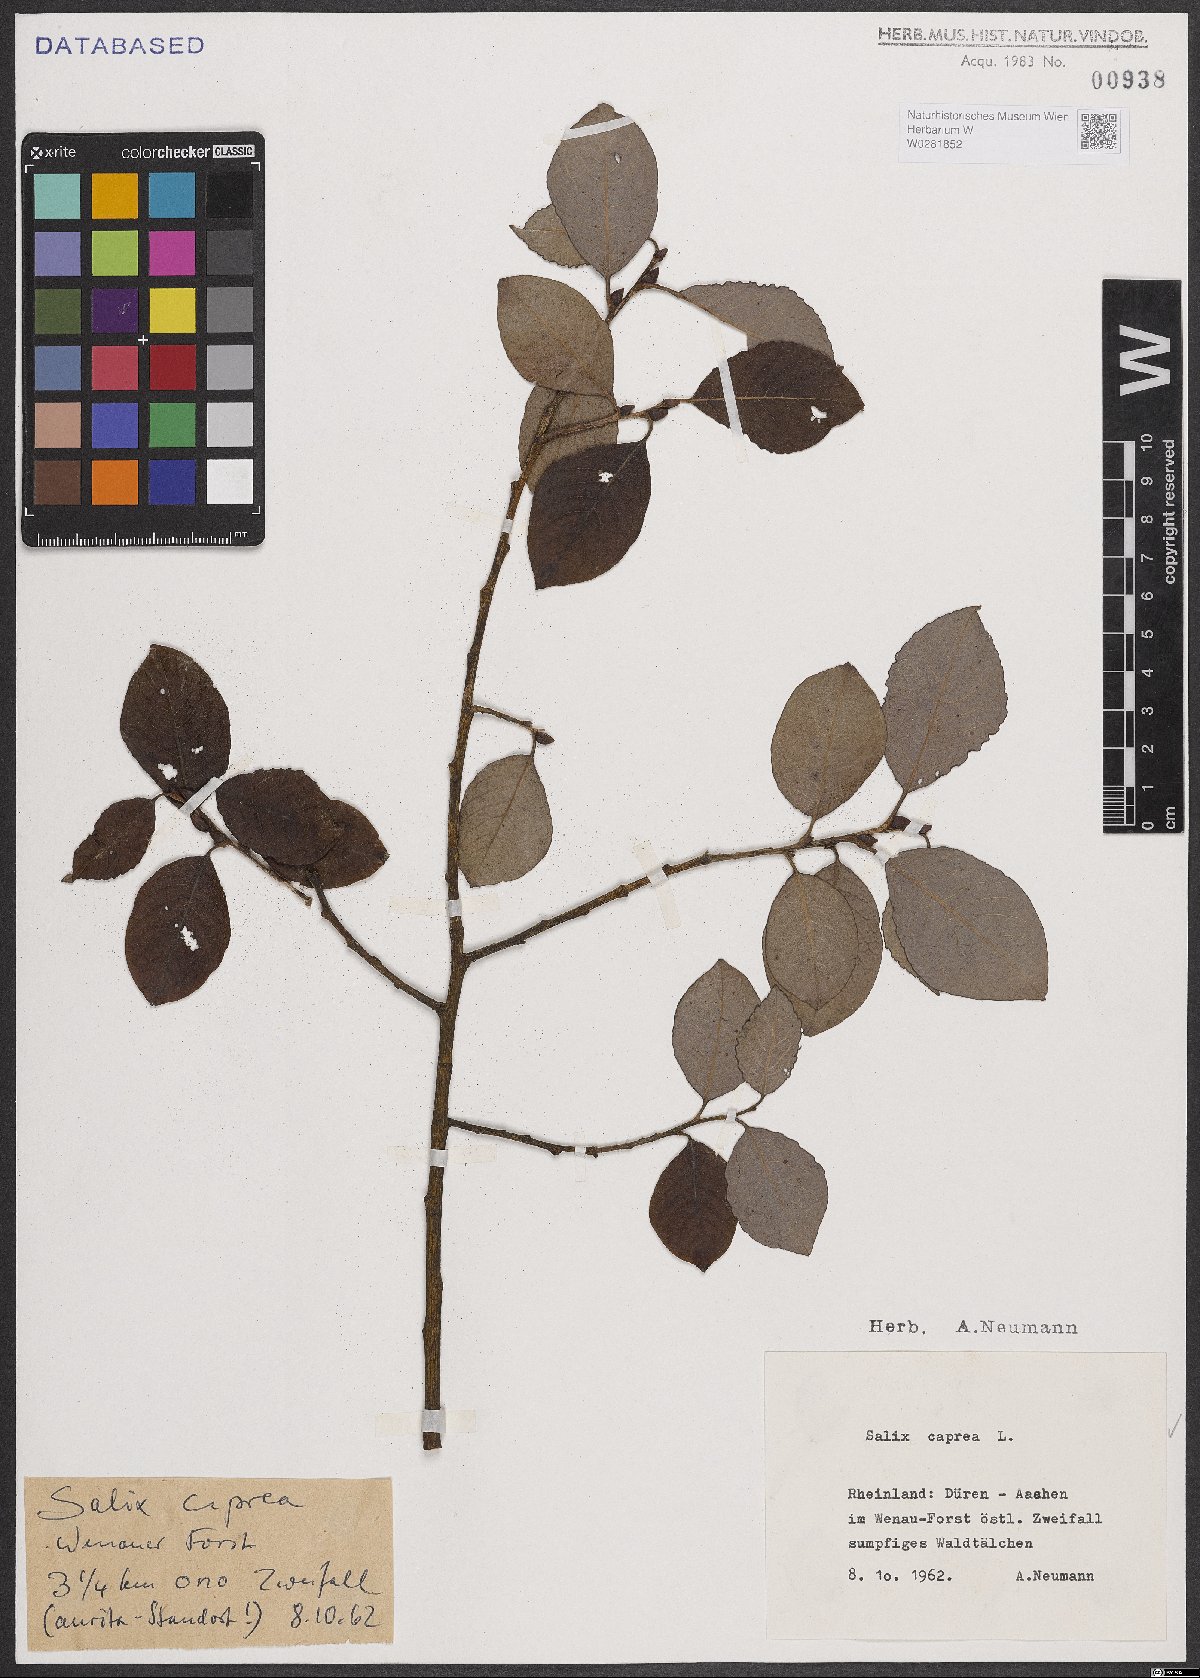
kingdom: Plantae
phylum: Tracheophyta
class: Magnoliopsida
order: Malpighiales
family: Salicaceae
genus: Salix
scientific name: Salix caprea
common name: Goat willow
